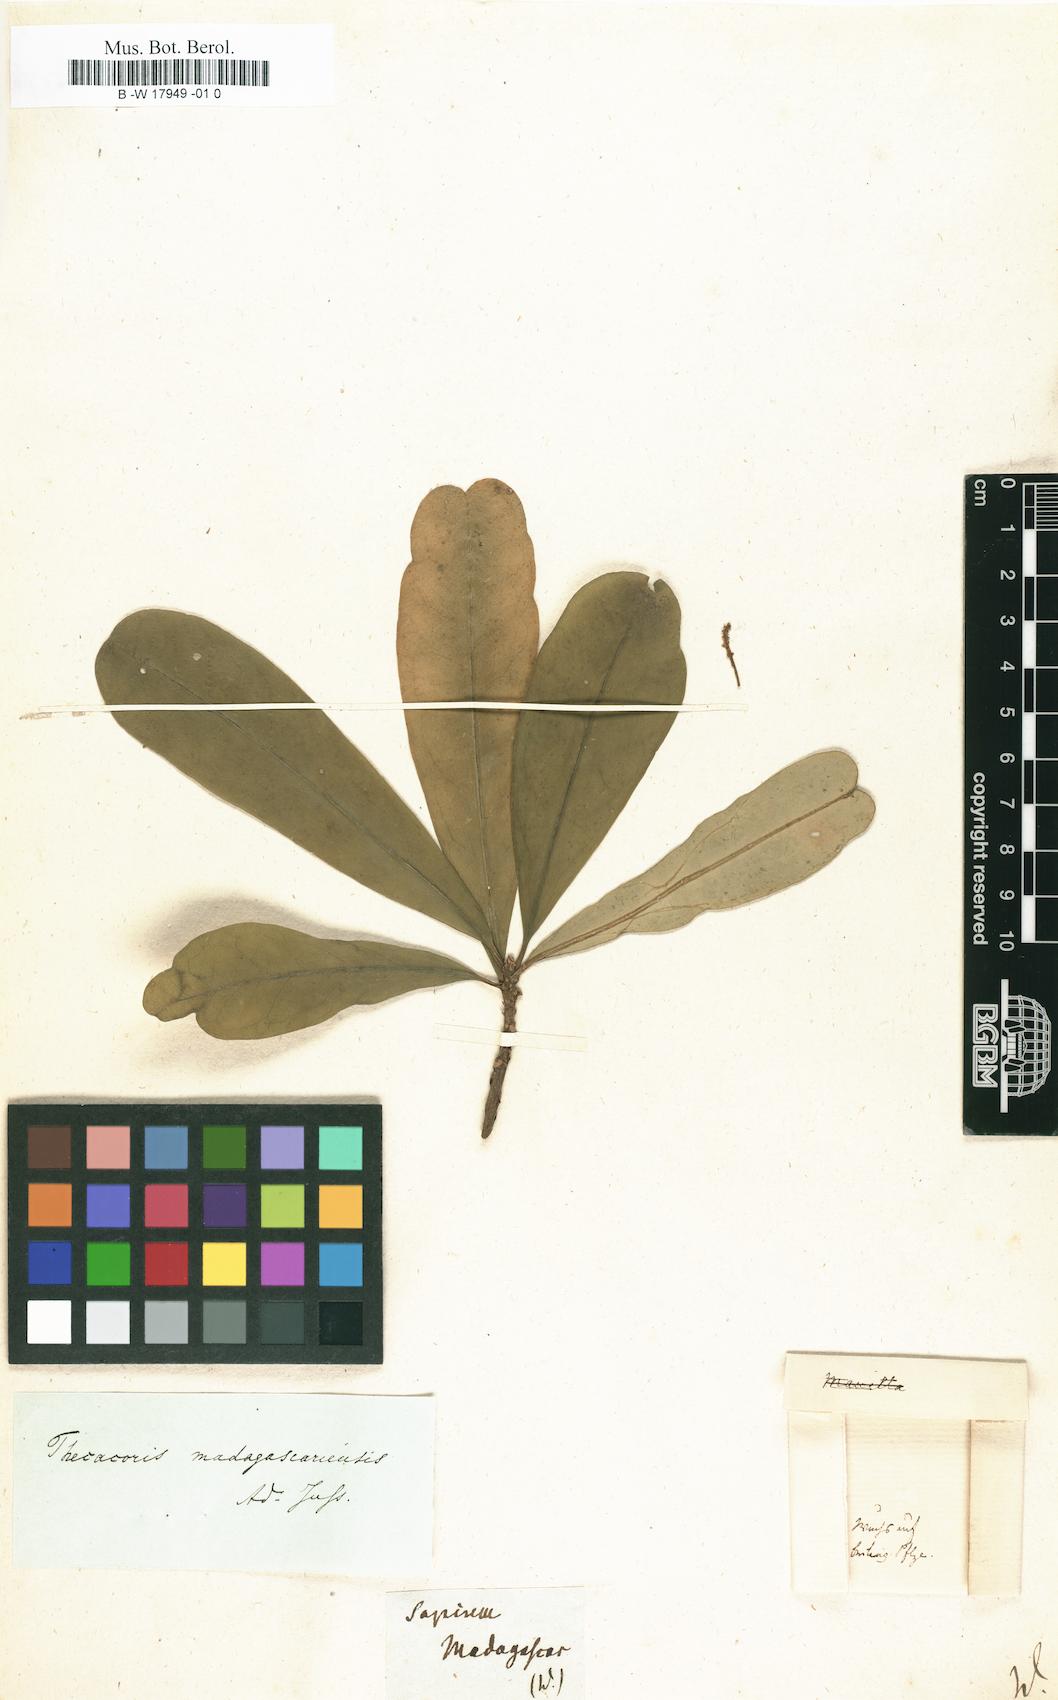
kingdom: Plantae
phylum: Tracheophyta
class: Magnoliopsida
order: Malpighiales
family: Euphorbiaceae
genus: Sapium
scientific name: Sapium
